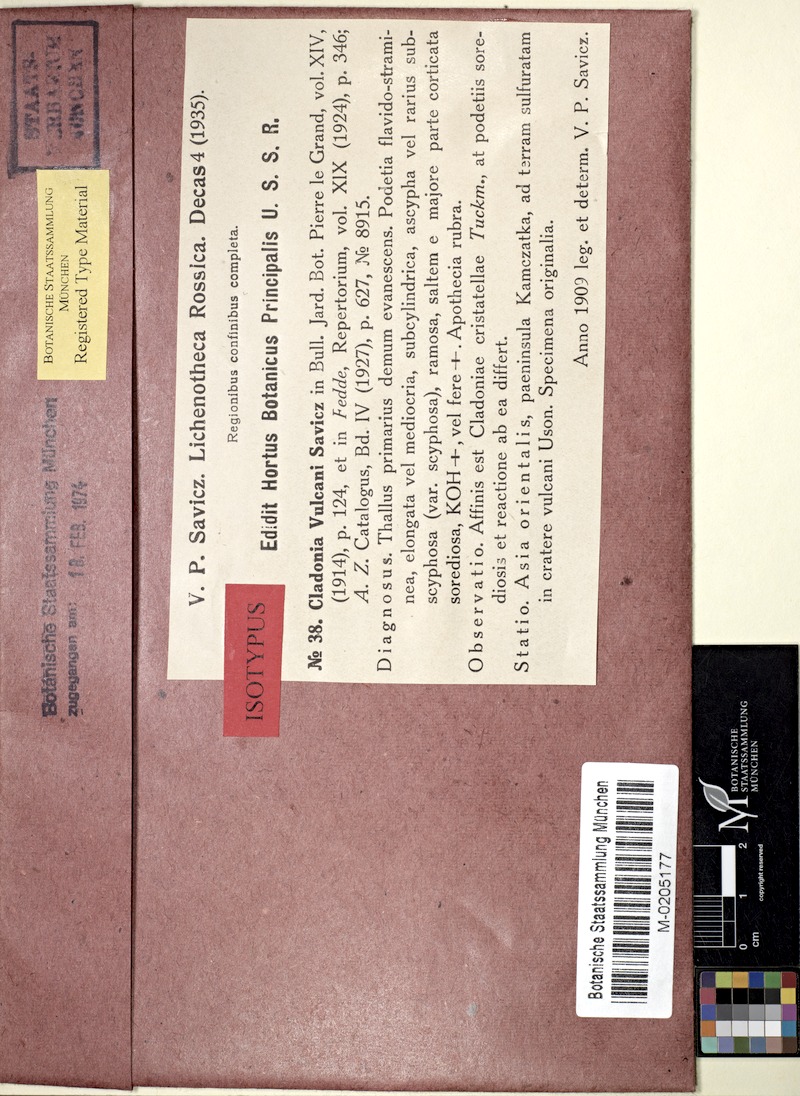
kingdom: Fungi
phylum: Ascomycota
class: Lecanoromycetes
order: Lecanorales
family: Cladoniaceae
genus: Cladonia
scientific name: Cladonia vulcani
